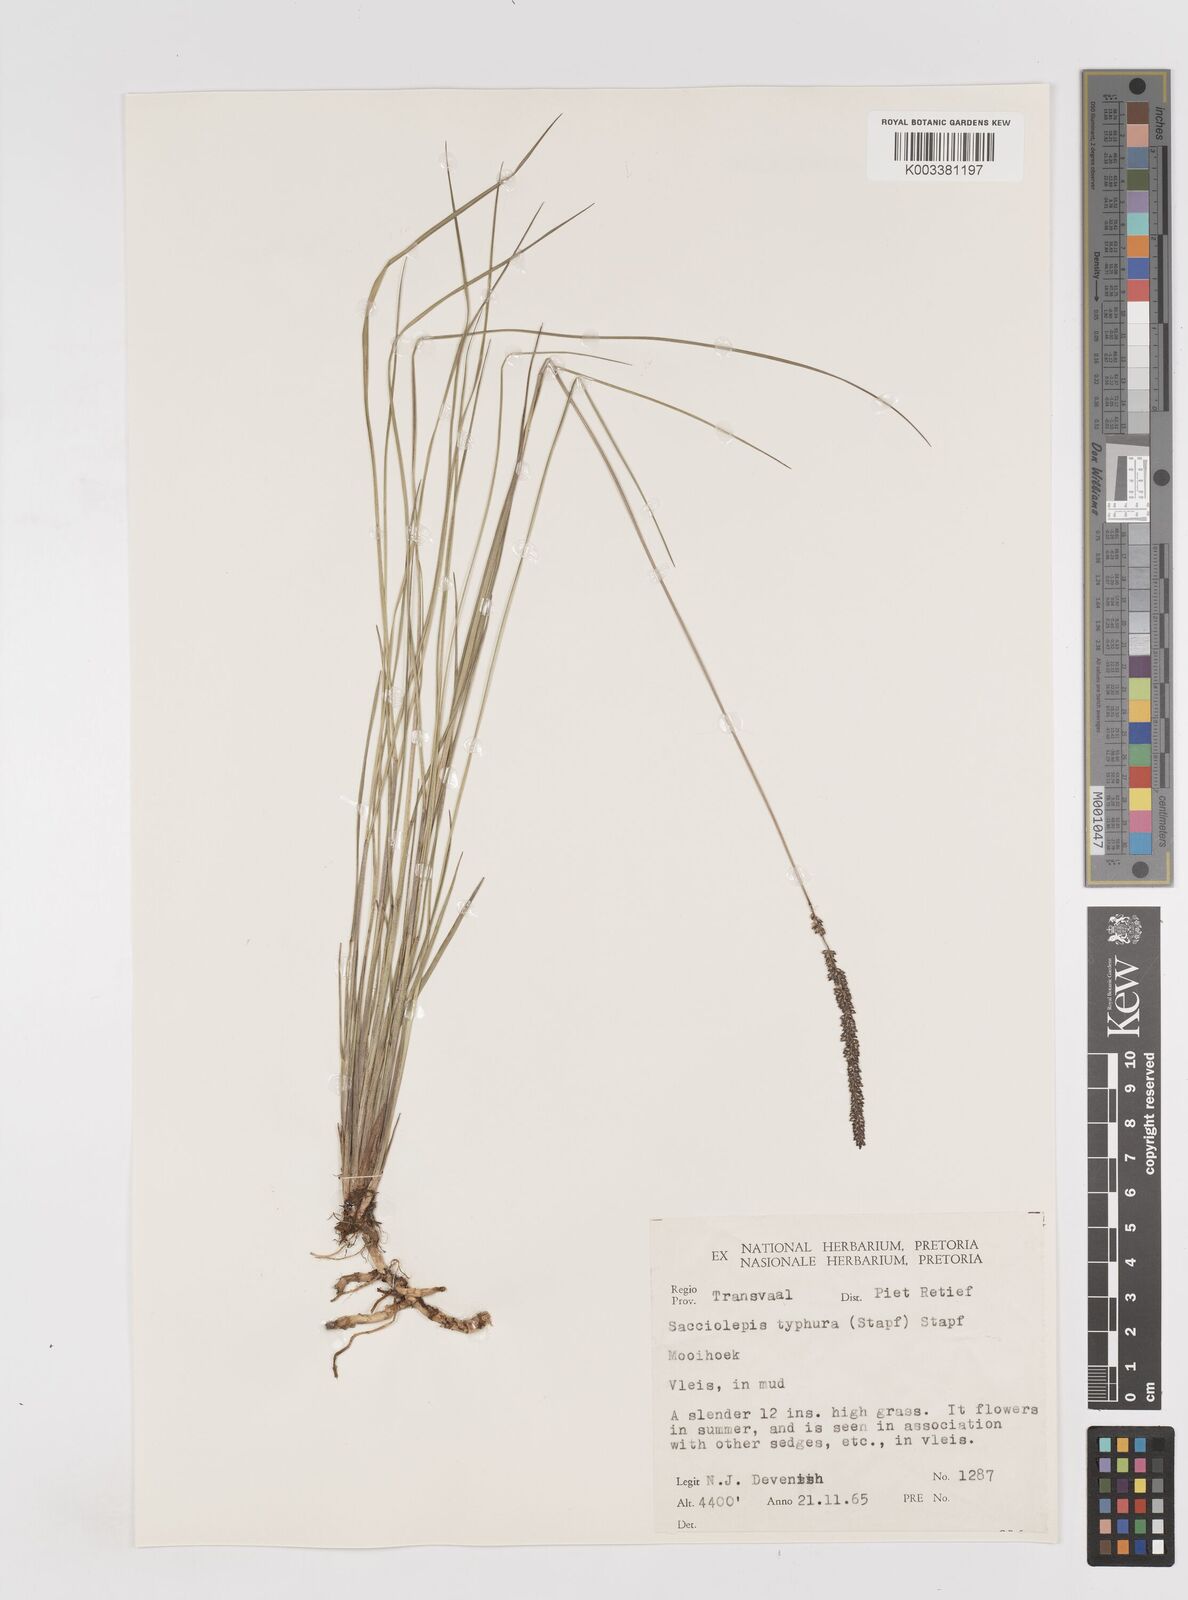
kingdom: Plantae
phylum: Tracheophyta
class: Liliopsida
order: Poales
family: Poaceae
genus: Sacciolepis
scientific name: Sacciolepis chevalieri
